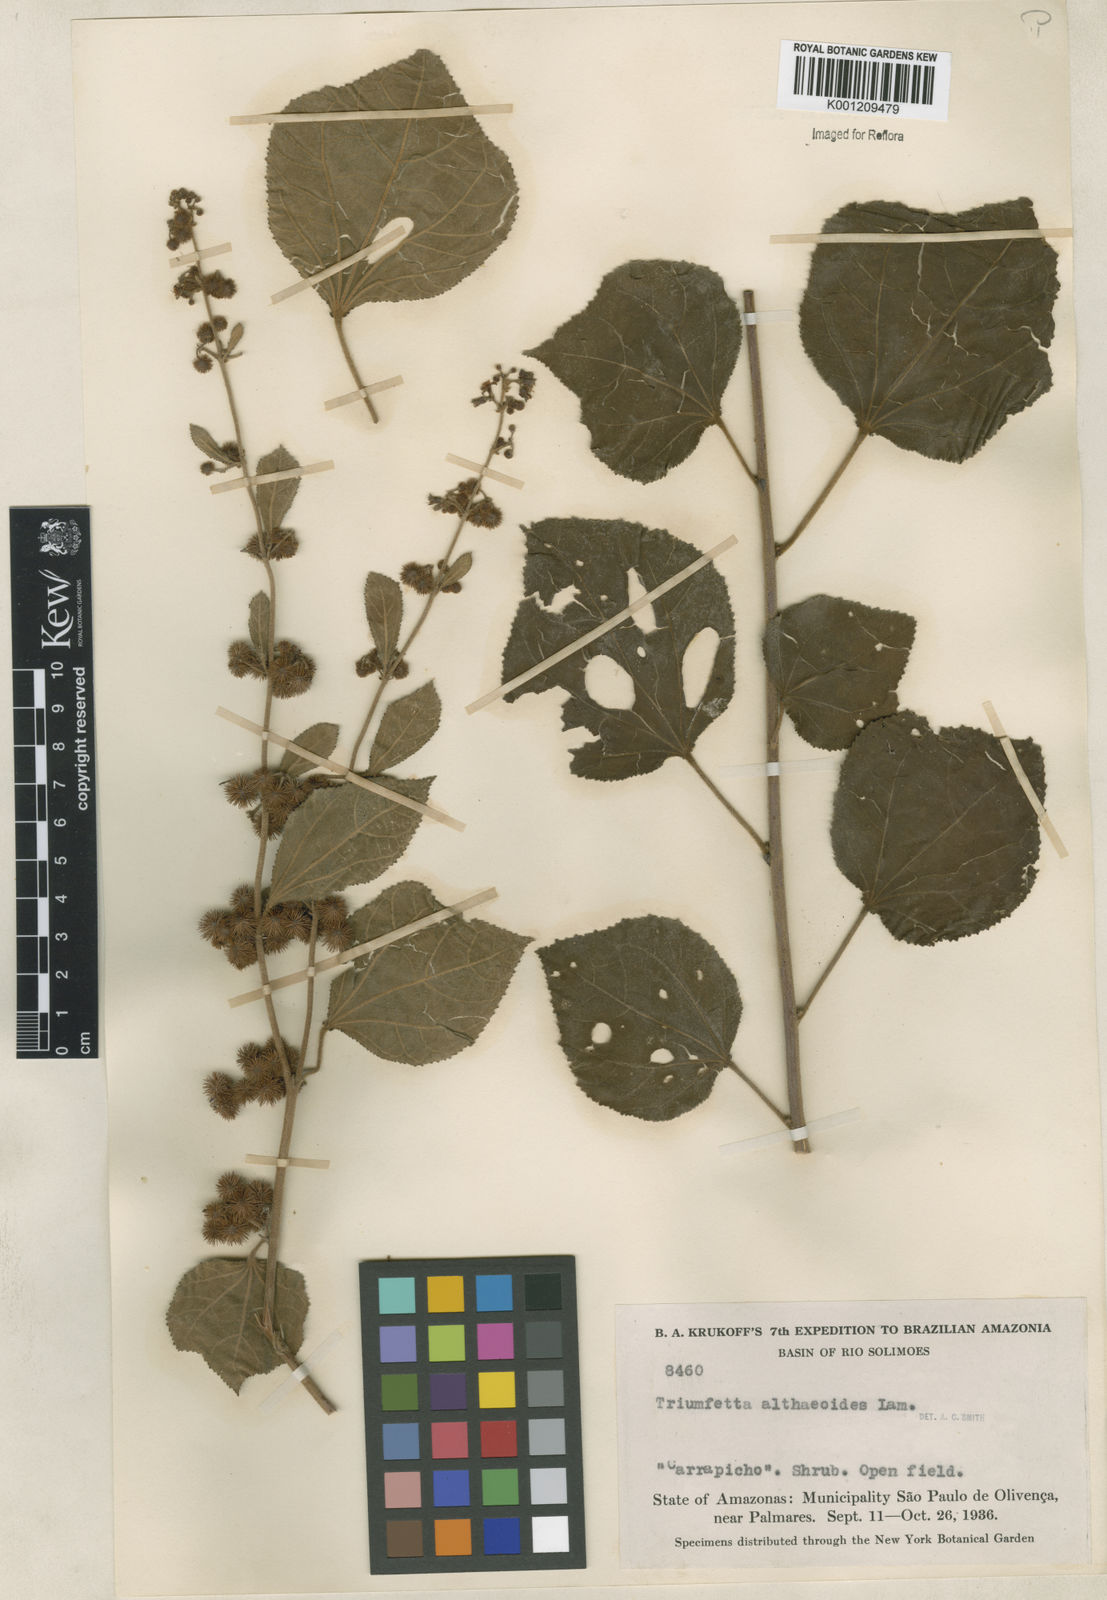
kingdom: Plantae
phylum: Tracheophyta
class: Magnoliopsida
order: Malvales
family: Malvaceae
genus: Triumfetta
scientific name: Triumfetta althaeoides
